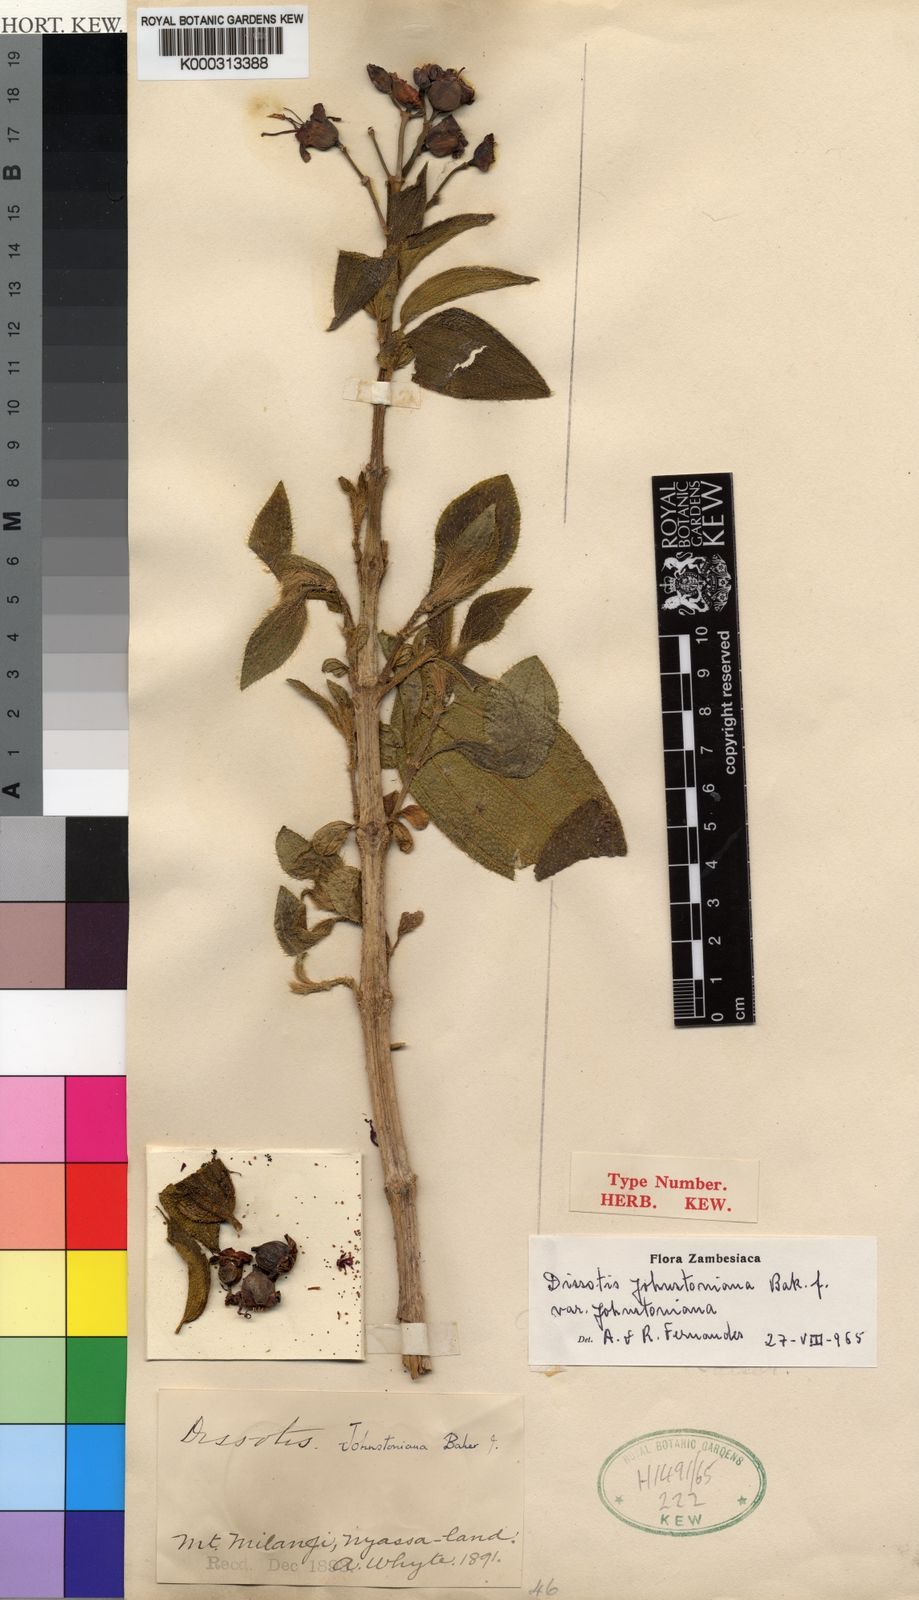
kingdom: Plantae
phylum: Tracheophyta
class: Magnoliopsida
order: Myrtales
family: Melastomataceae
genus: Dissotidendron
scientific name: Dissotidendron johnstonianum
